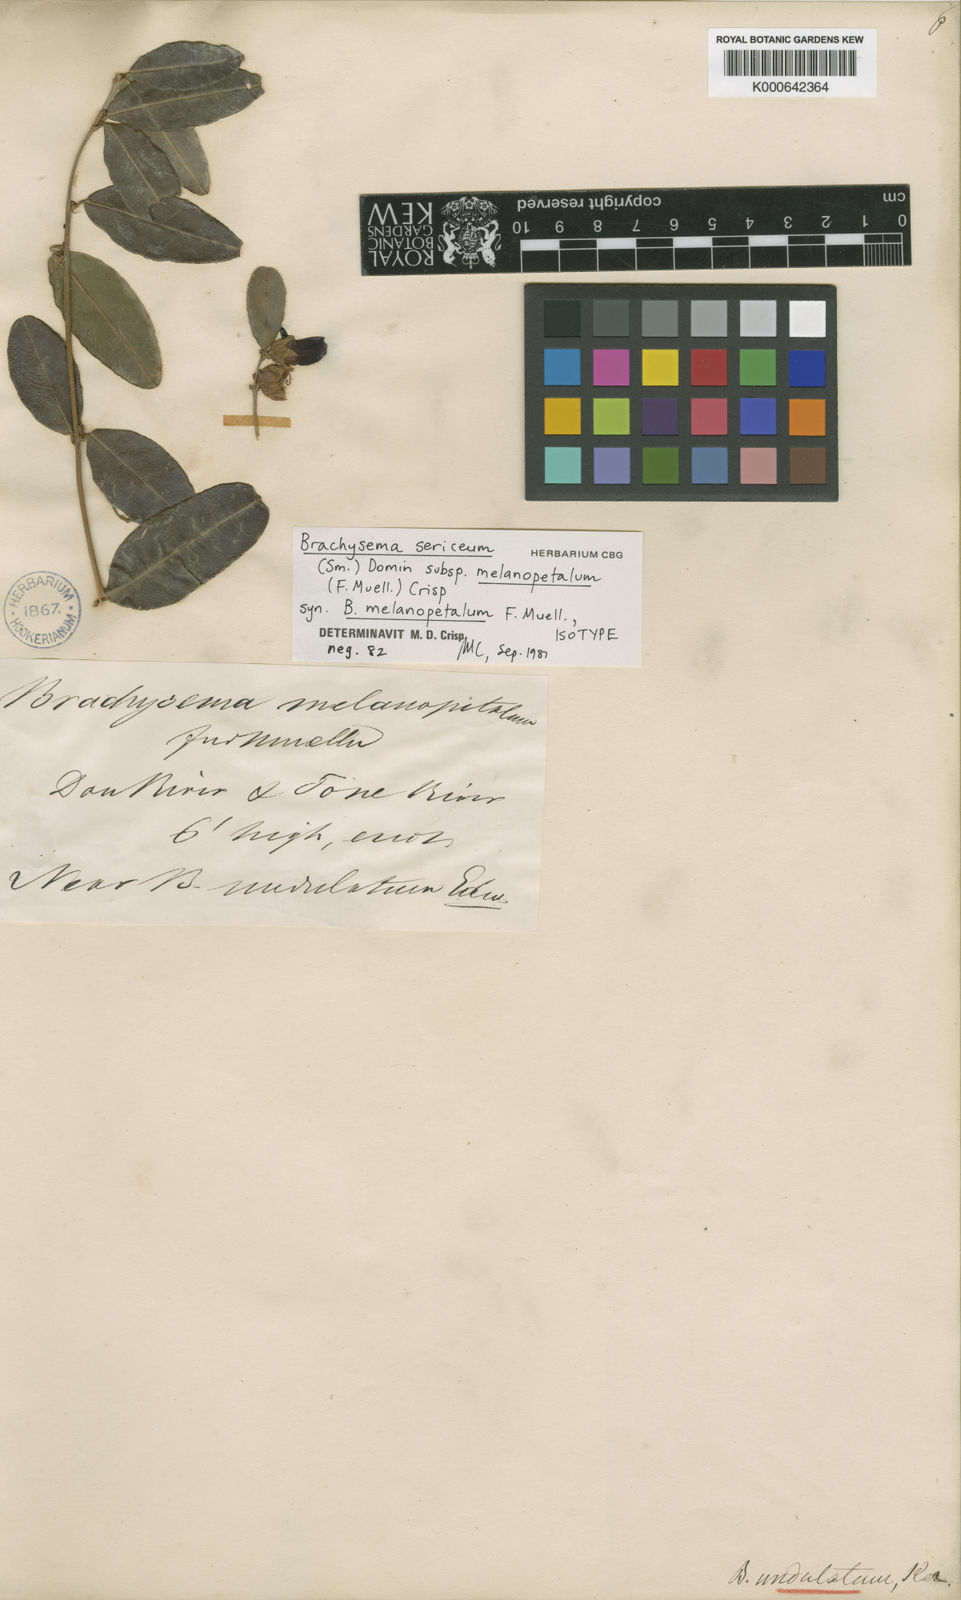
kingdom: Plantae
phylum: Tracheophyta
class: Magnoliopsida
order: Fabales
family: Fabaceae
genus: Gastrolobium
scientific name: Gastrolobium melanopetalum
